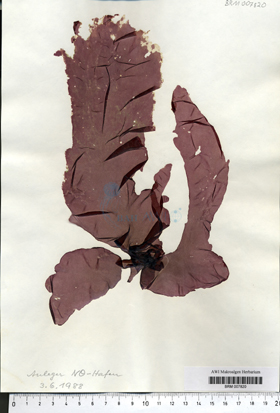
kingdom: Plantae
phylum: Rhodophyta
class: Bangiophyceae
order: Bangiales
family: Bangiaceae
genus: Porphyra
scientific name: Porphyra umbilicalis
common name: Purple laver
